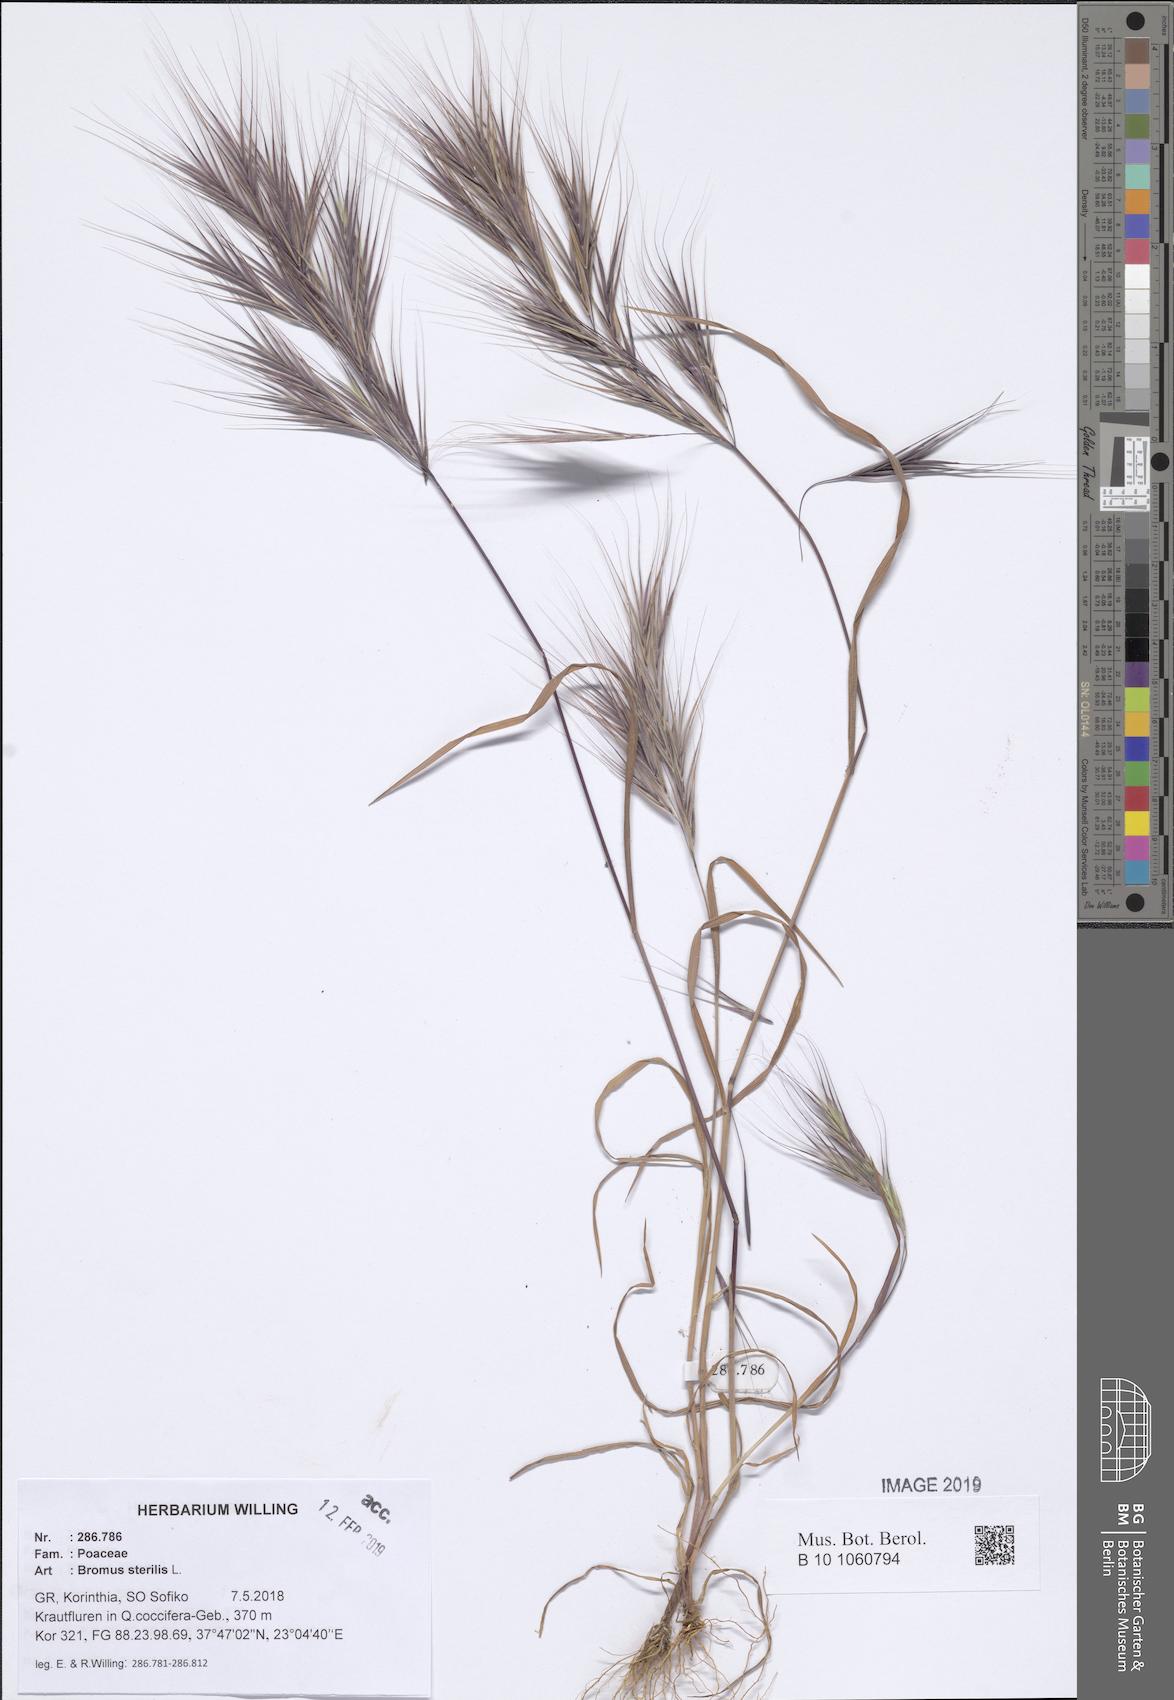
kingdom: Plantae
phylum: Tracheophyta
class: Liliopsida
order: Poales
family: Poaceae
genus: Bromus
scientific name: Bromus sterilis
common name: Poverty brome
